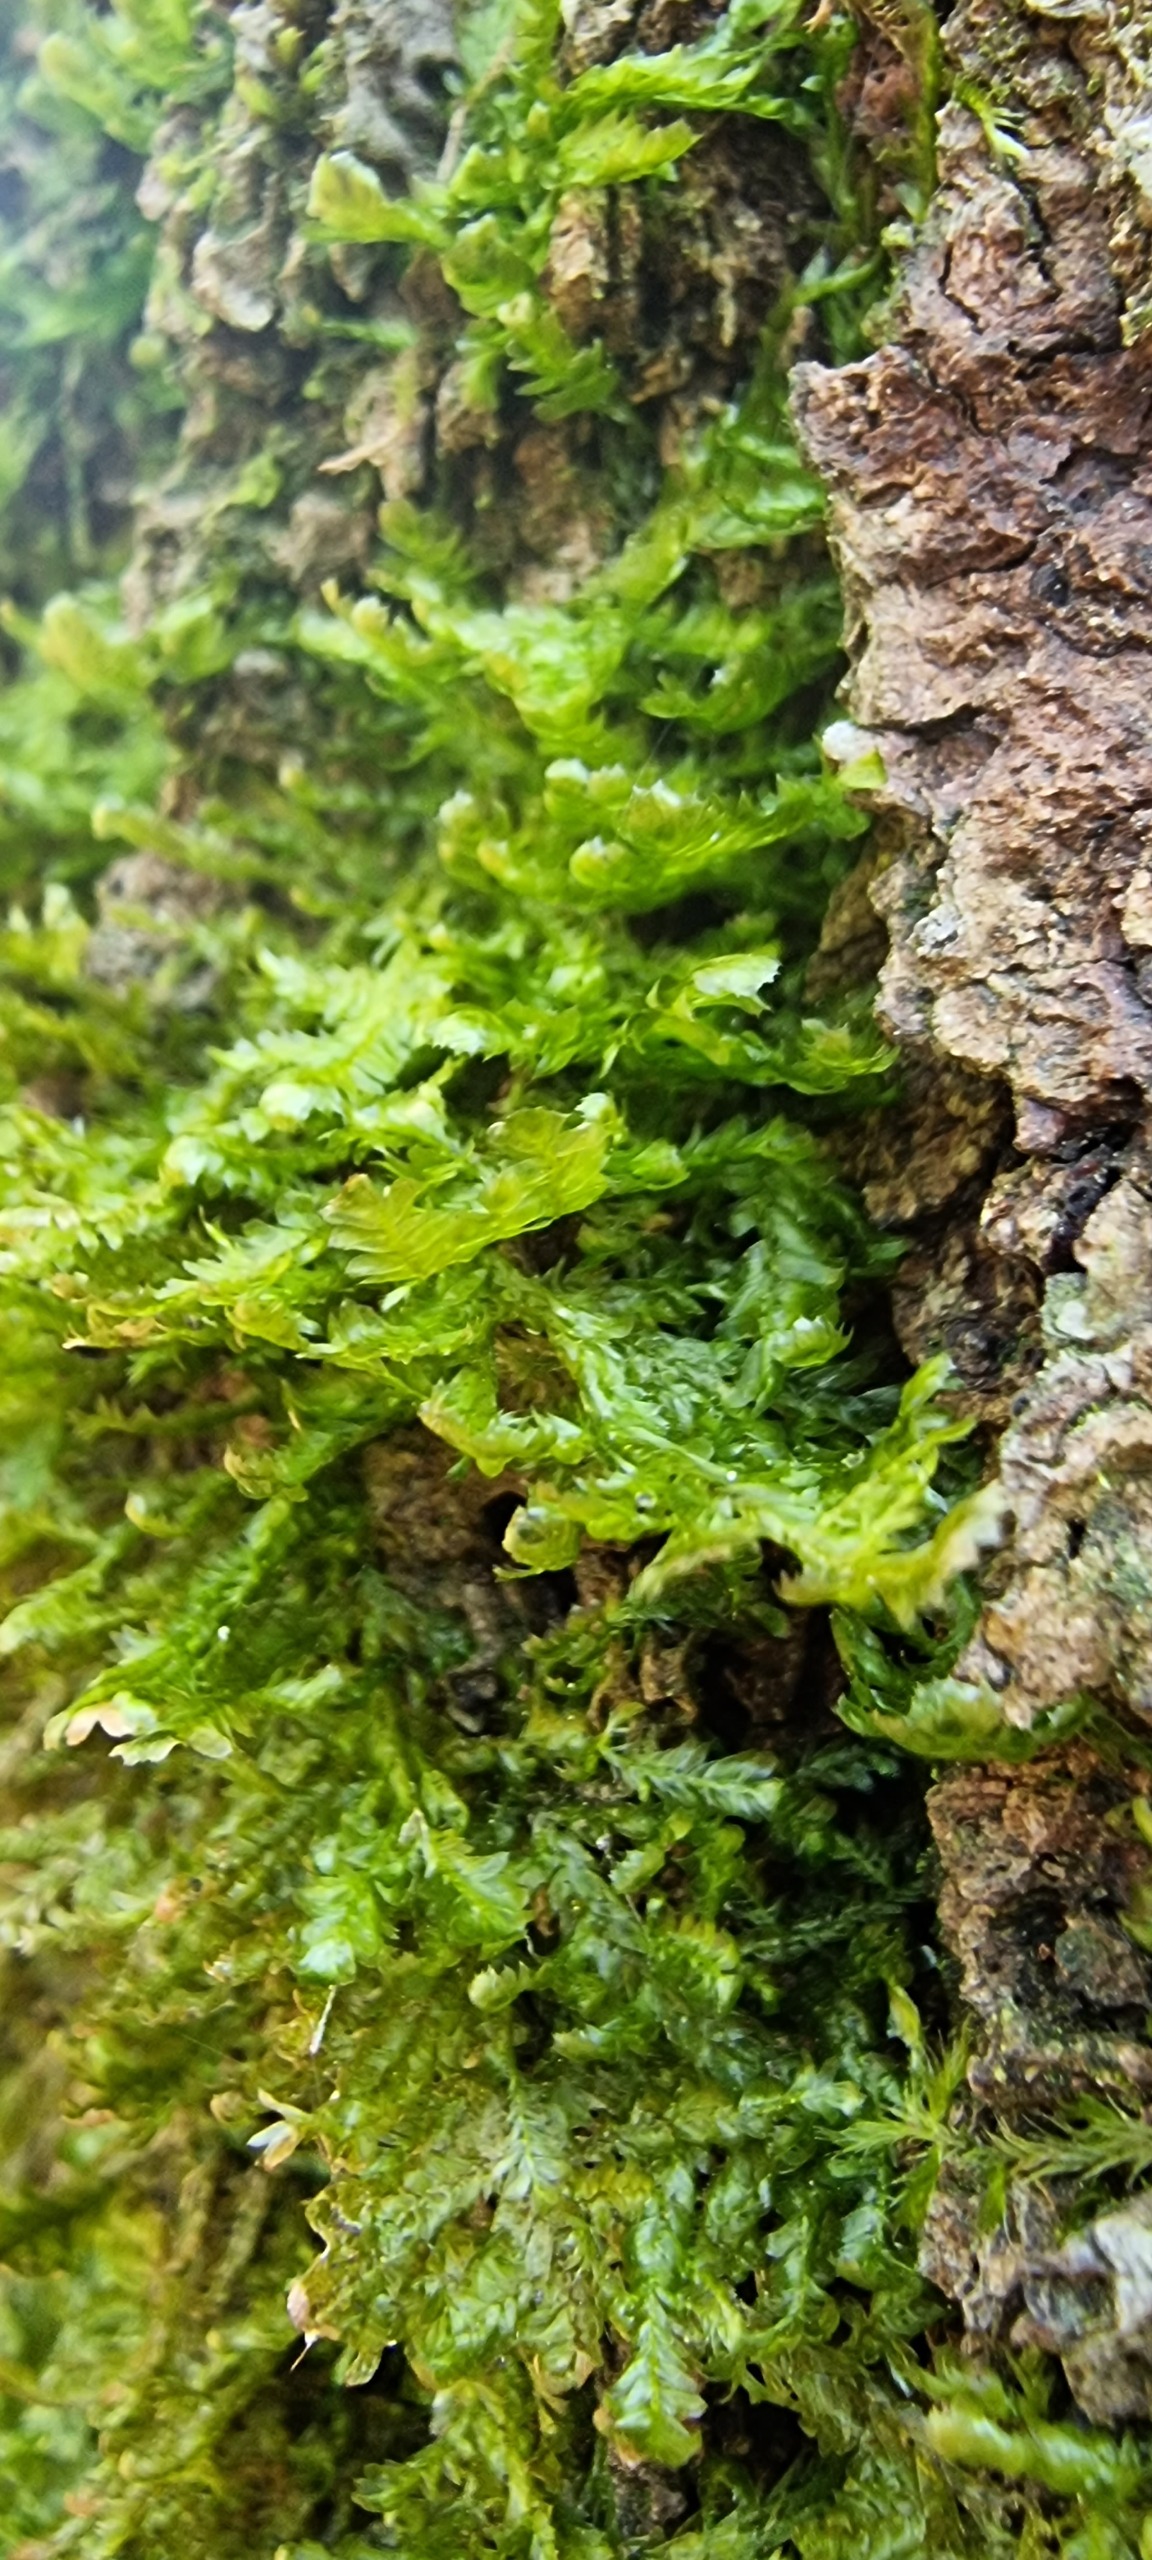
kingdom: Plantae
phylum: Bryophyta
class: Bryopsida
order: Hypnales
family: Neckeraceae
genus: Alleniella
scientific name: Alleniella complanata
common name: Almindelig fladmos
